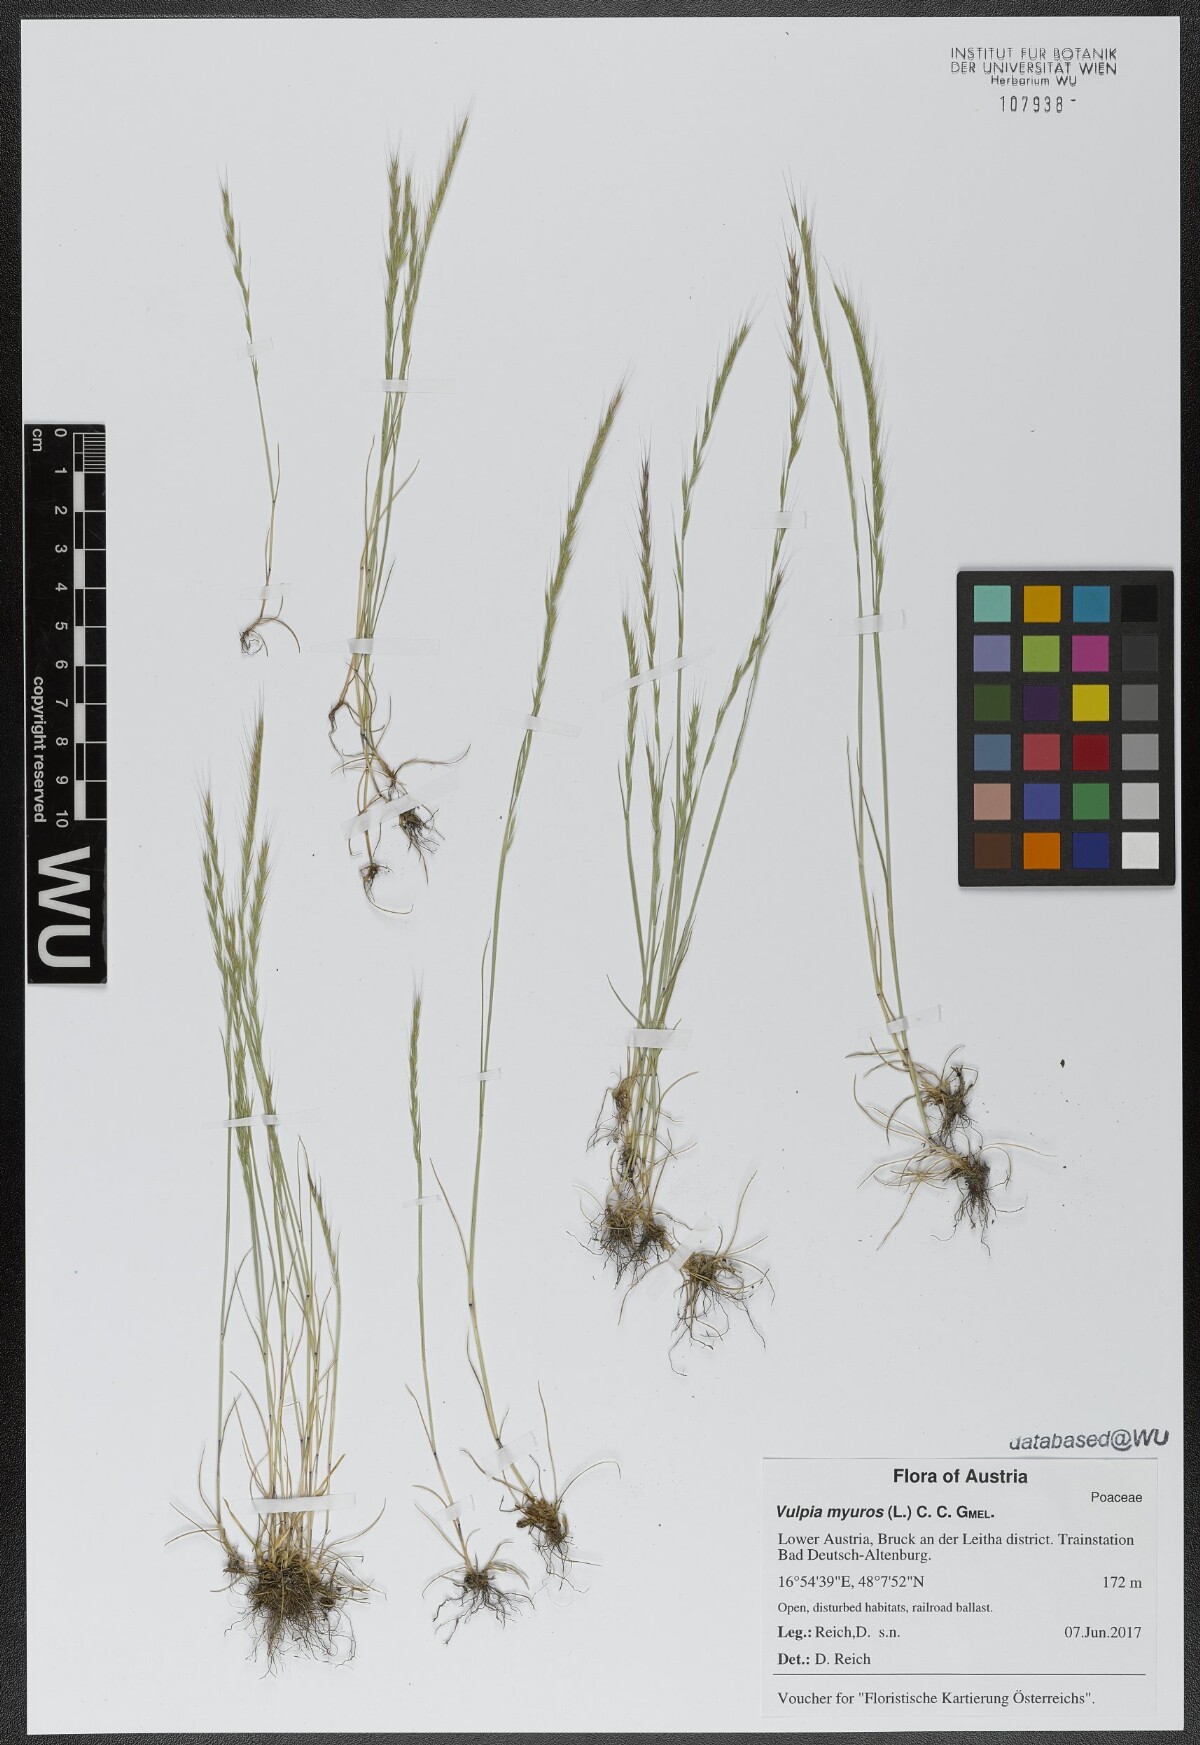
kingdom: Plantae
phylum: Tracheophyta
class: Liliopsida
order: Poales
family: Poaceae
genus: Festuca
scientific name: Festuca myuros
